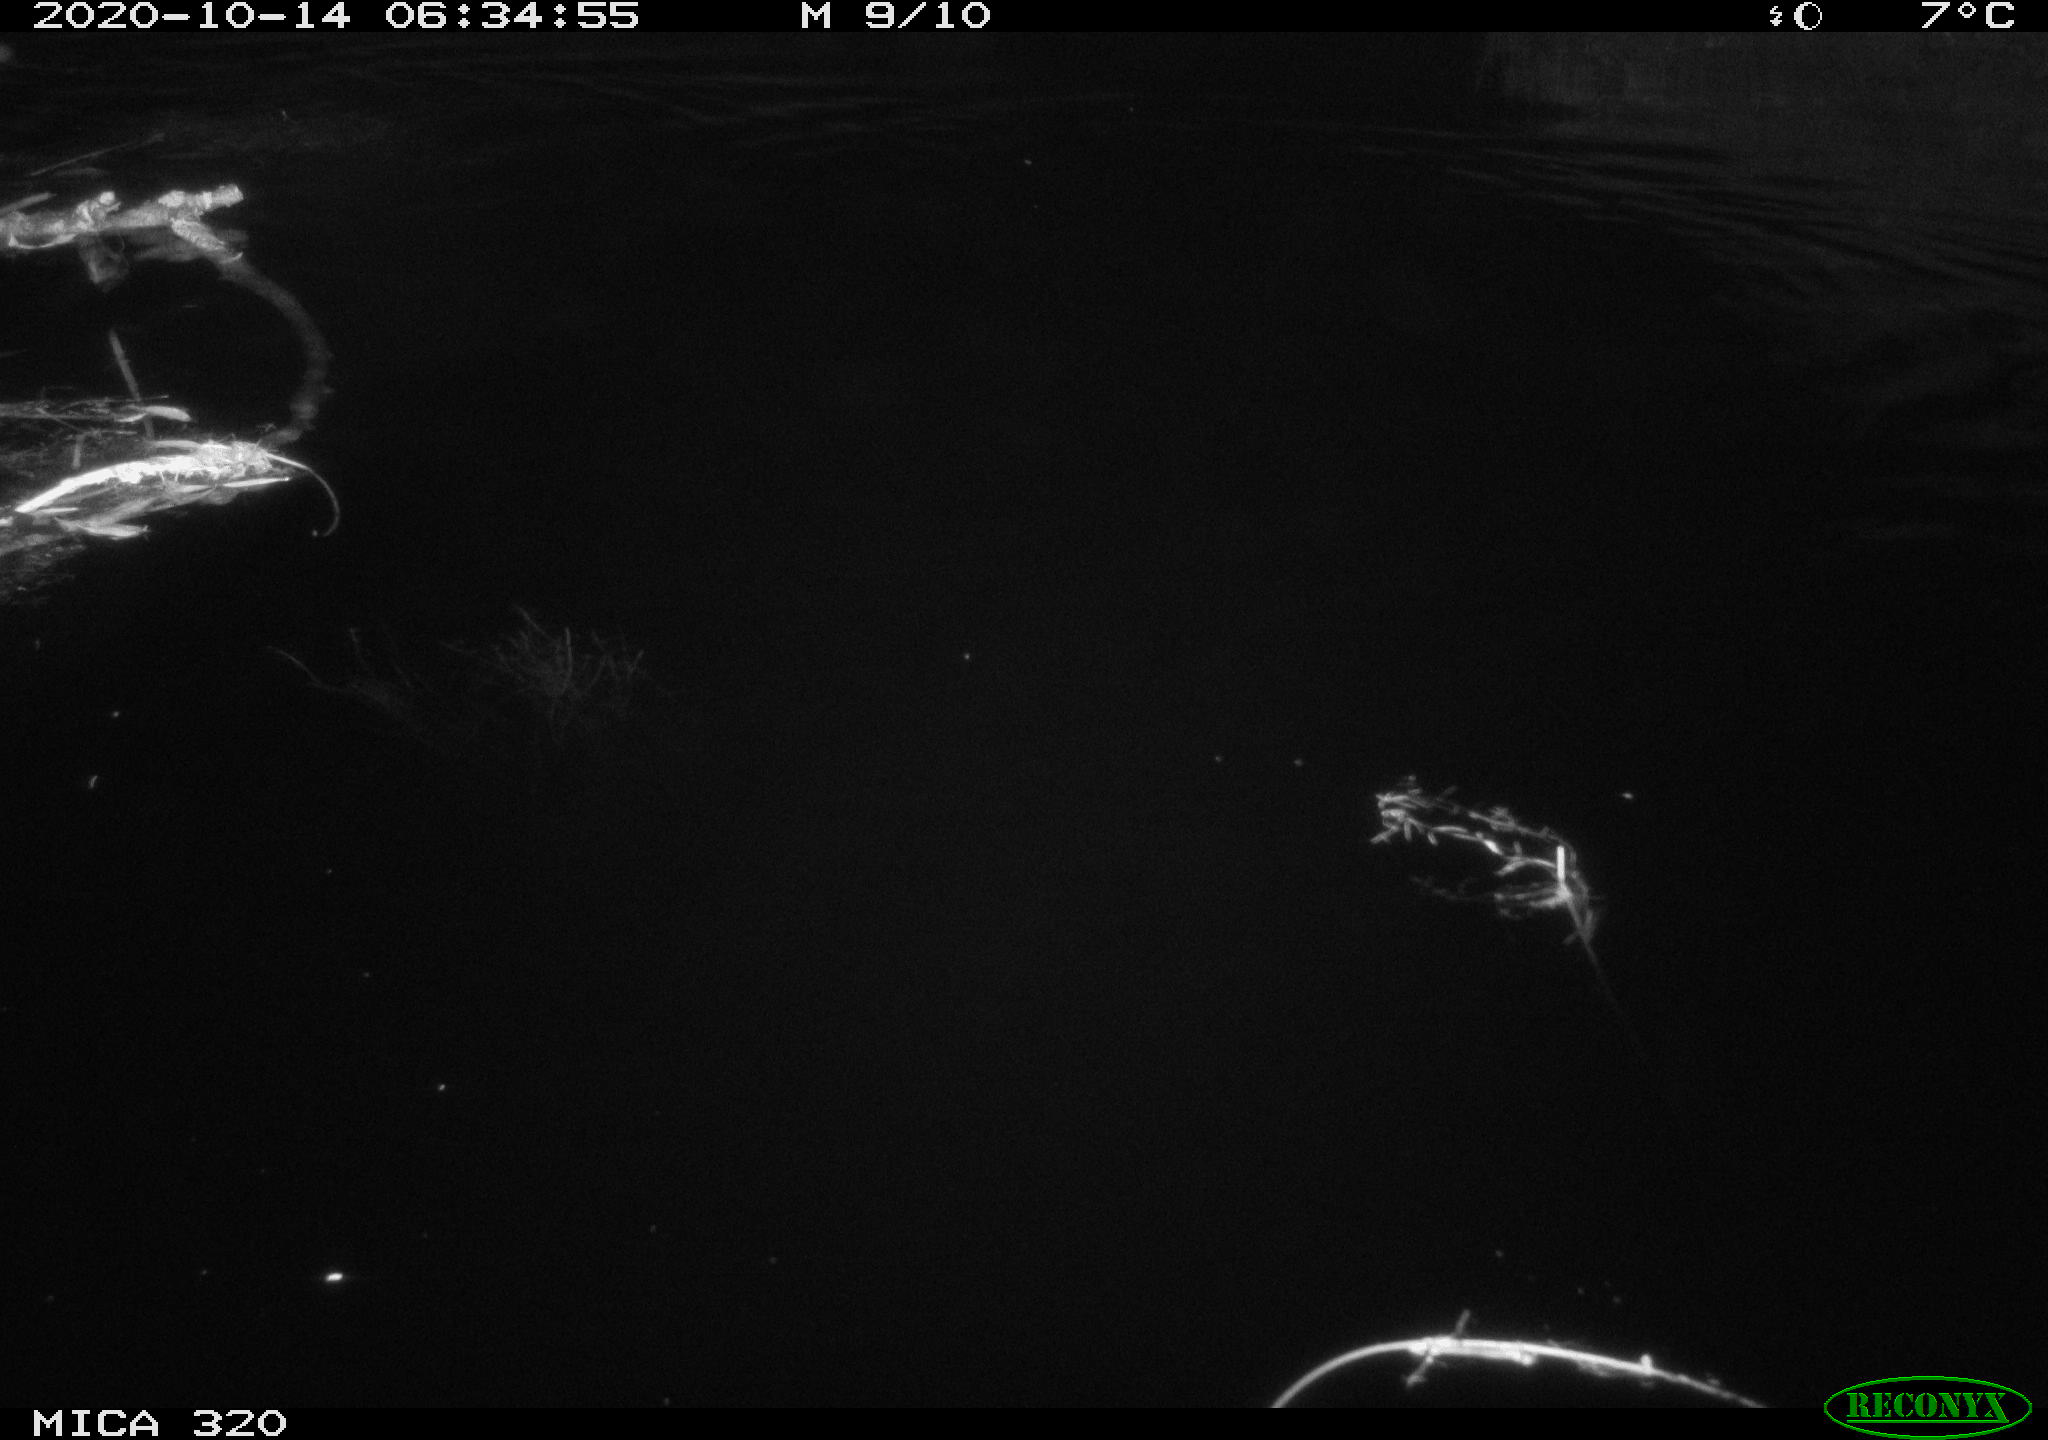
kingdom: Animalia
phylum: Chordata
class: Mammalia
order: Rodentia
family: Muridae
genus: Rattus
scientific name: Rattus norvegicus
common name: Brown rat
